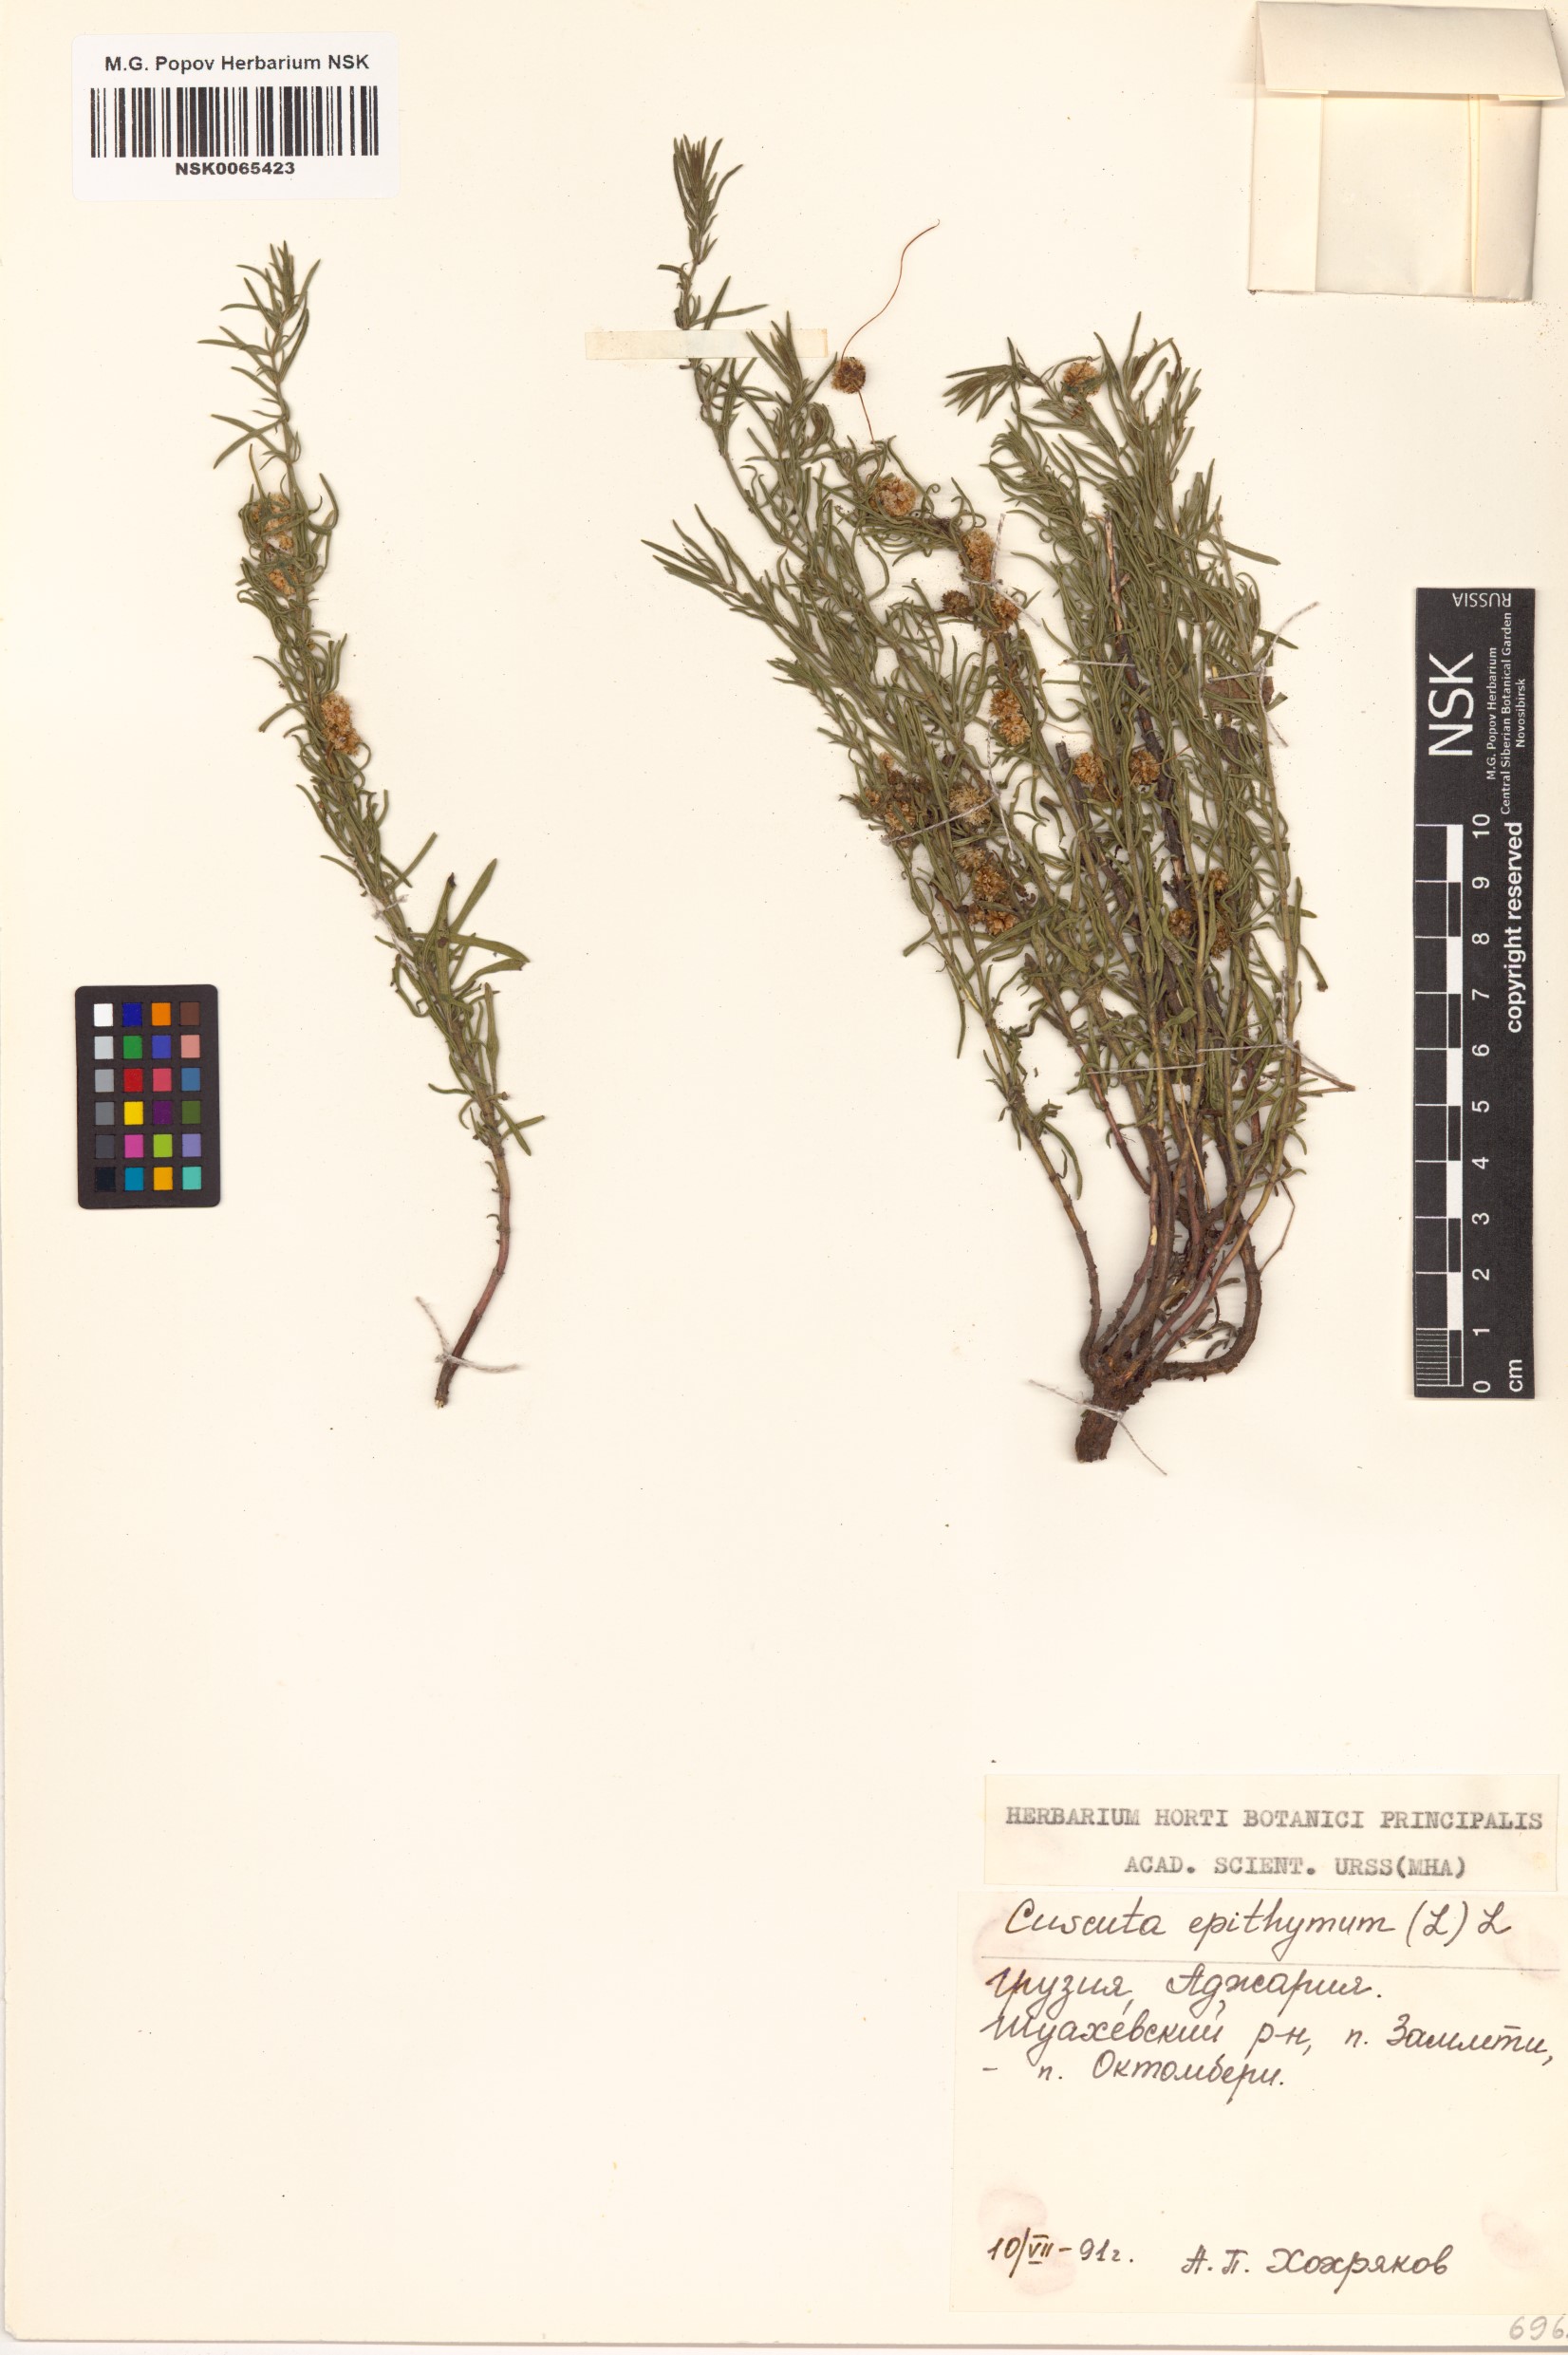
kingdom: Plantae
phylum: Tracheophyta
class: Magnoliopsida
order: Solanales
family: Convolvulaceae
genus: Cuscuta
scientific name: Cuscuta epithymum
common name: Clover dodder
